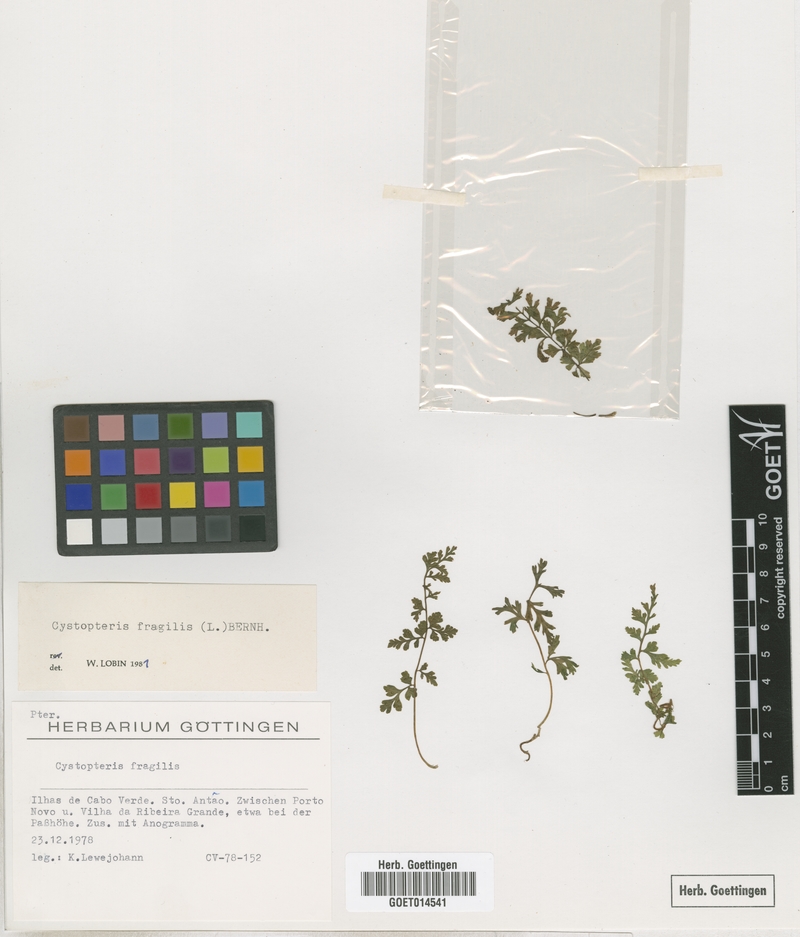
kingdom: Plantae
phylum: Tracheophyta
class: Polypodiopsida
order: Polypodiales
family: Cystopteridaceae
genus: Cystopteris
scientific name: Cystopteris fragilis
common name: Brittle bladder fern
